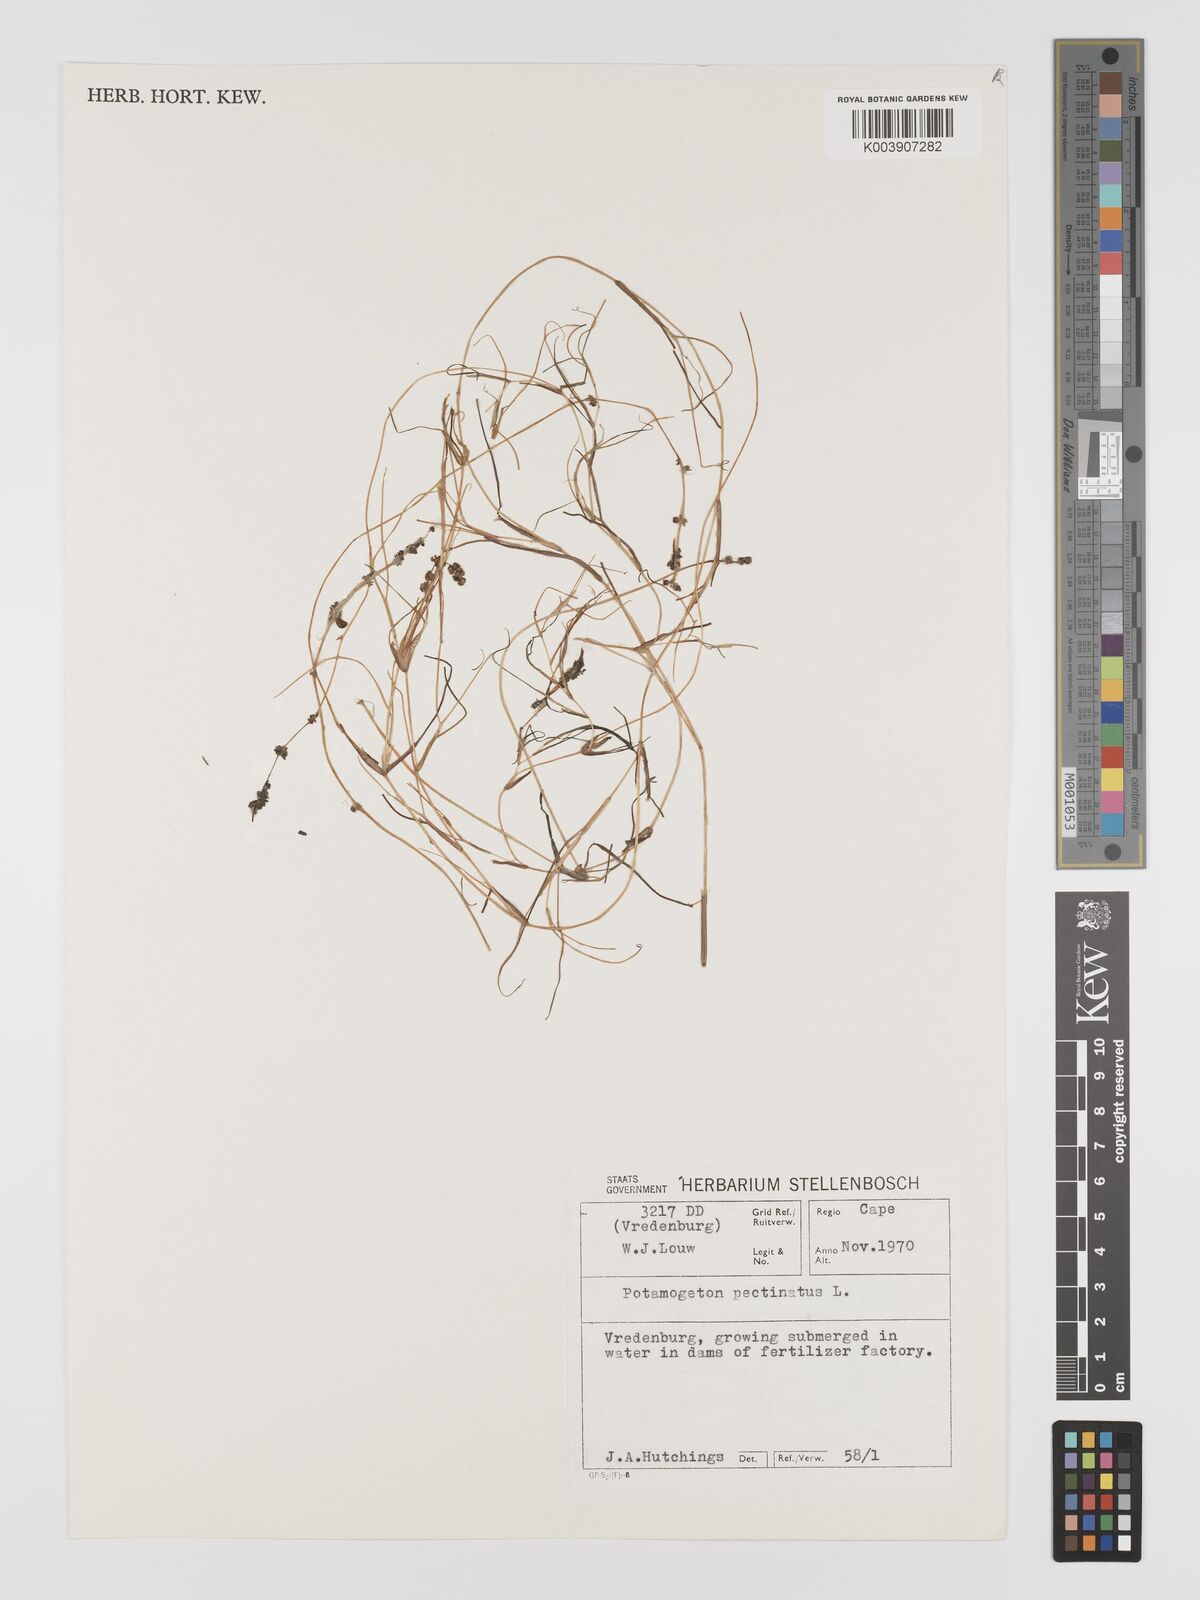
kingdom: Plantae
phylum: Tracheophyta
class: Liliopsida
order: Alismatales
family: Potamogetonaceae
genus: Stuckenia
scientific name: Stuckenia pectinata
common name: Sago pondweed
